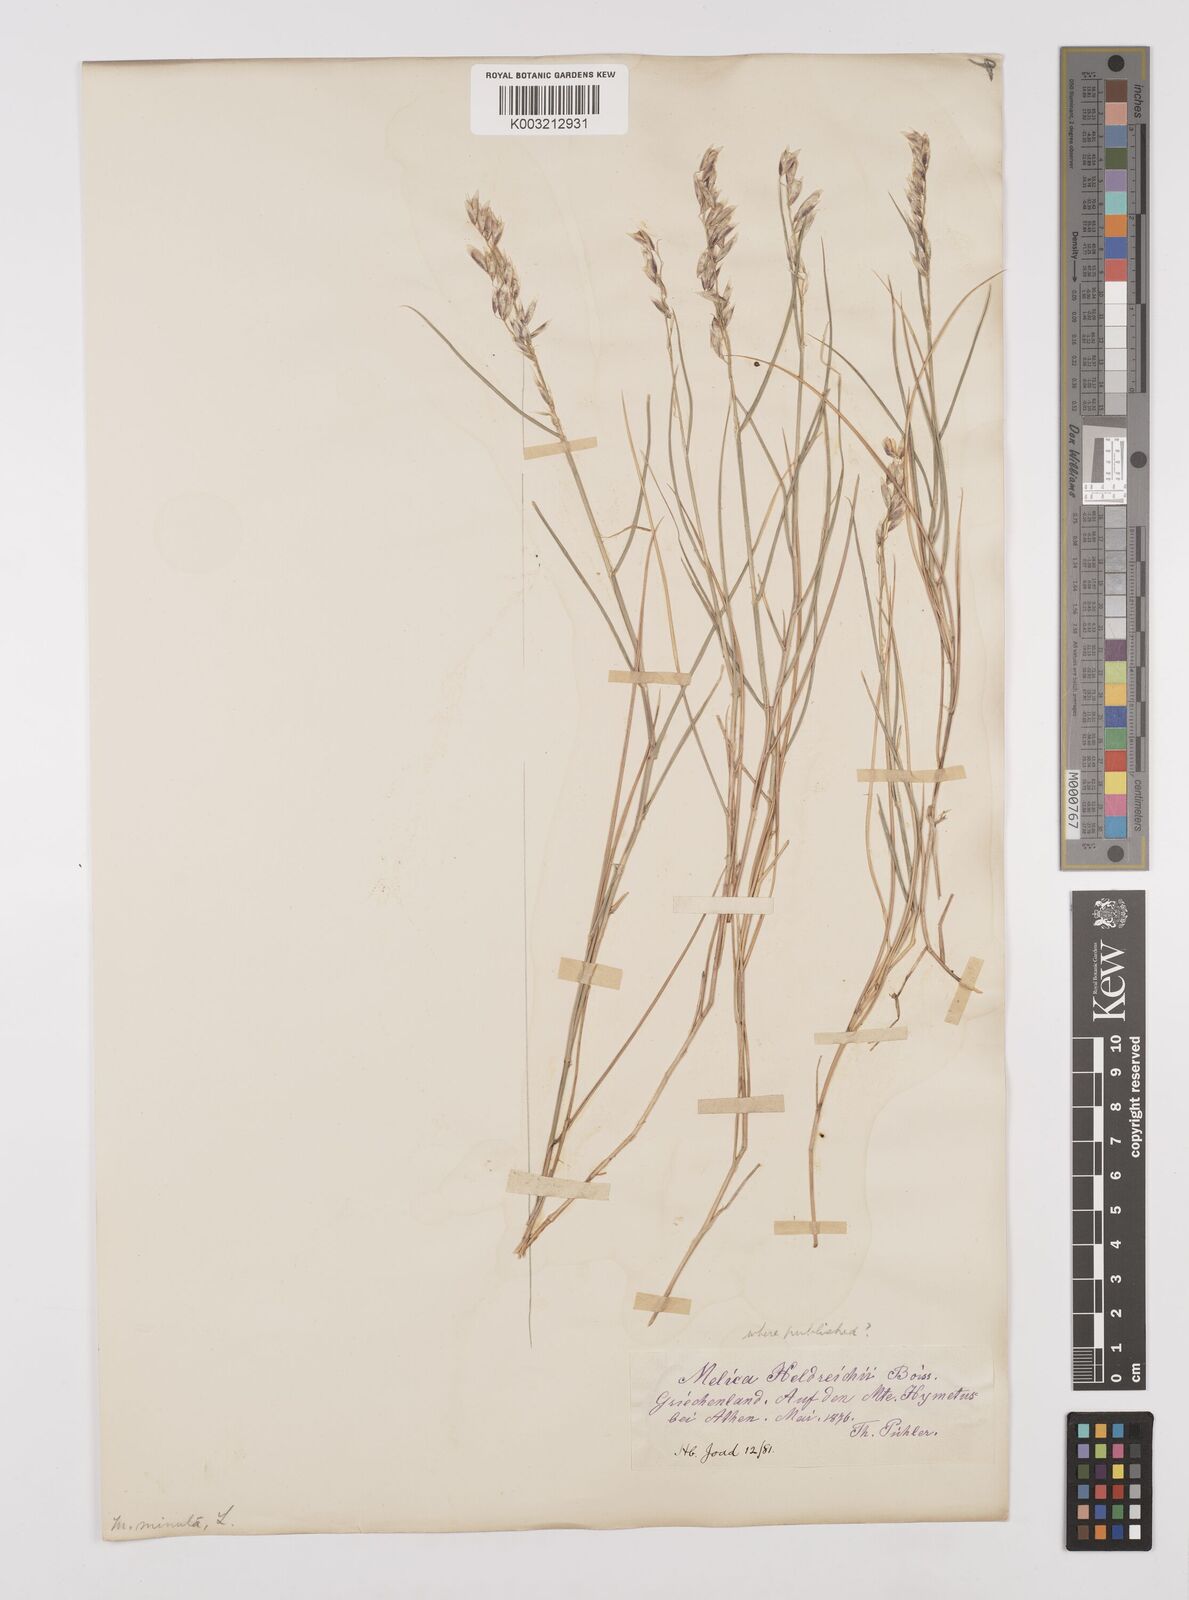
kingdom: Plantae
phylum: Tracheophyta
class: Liliopsida
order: Poales
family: Poaceae
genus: Melica
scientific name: Melica minuta
